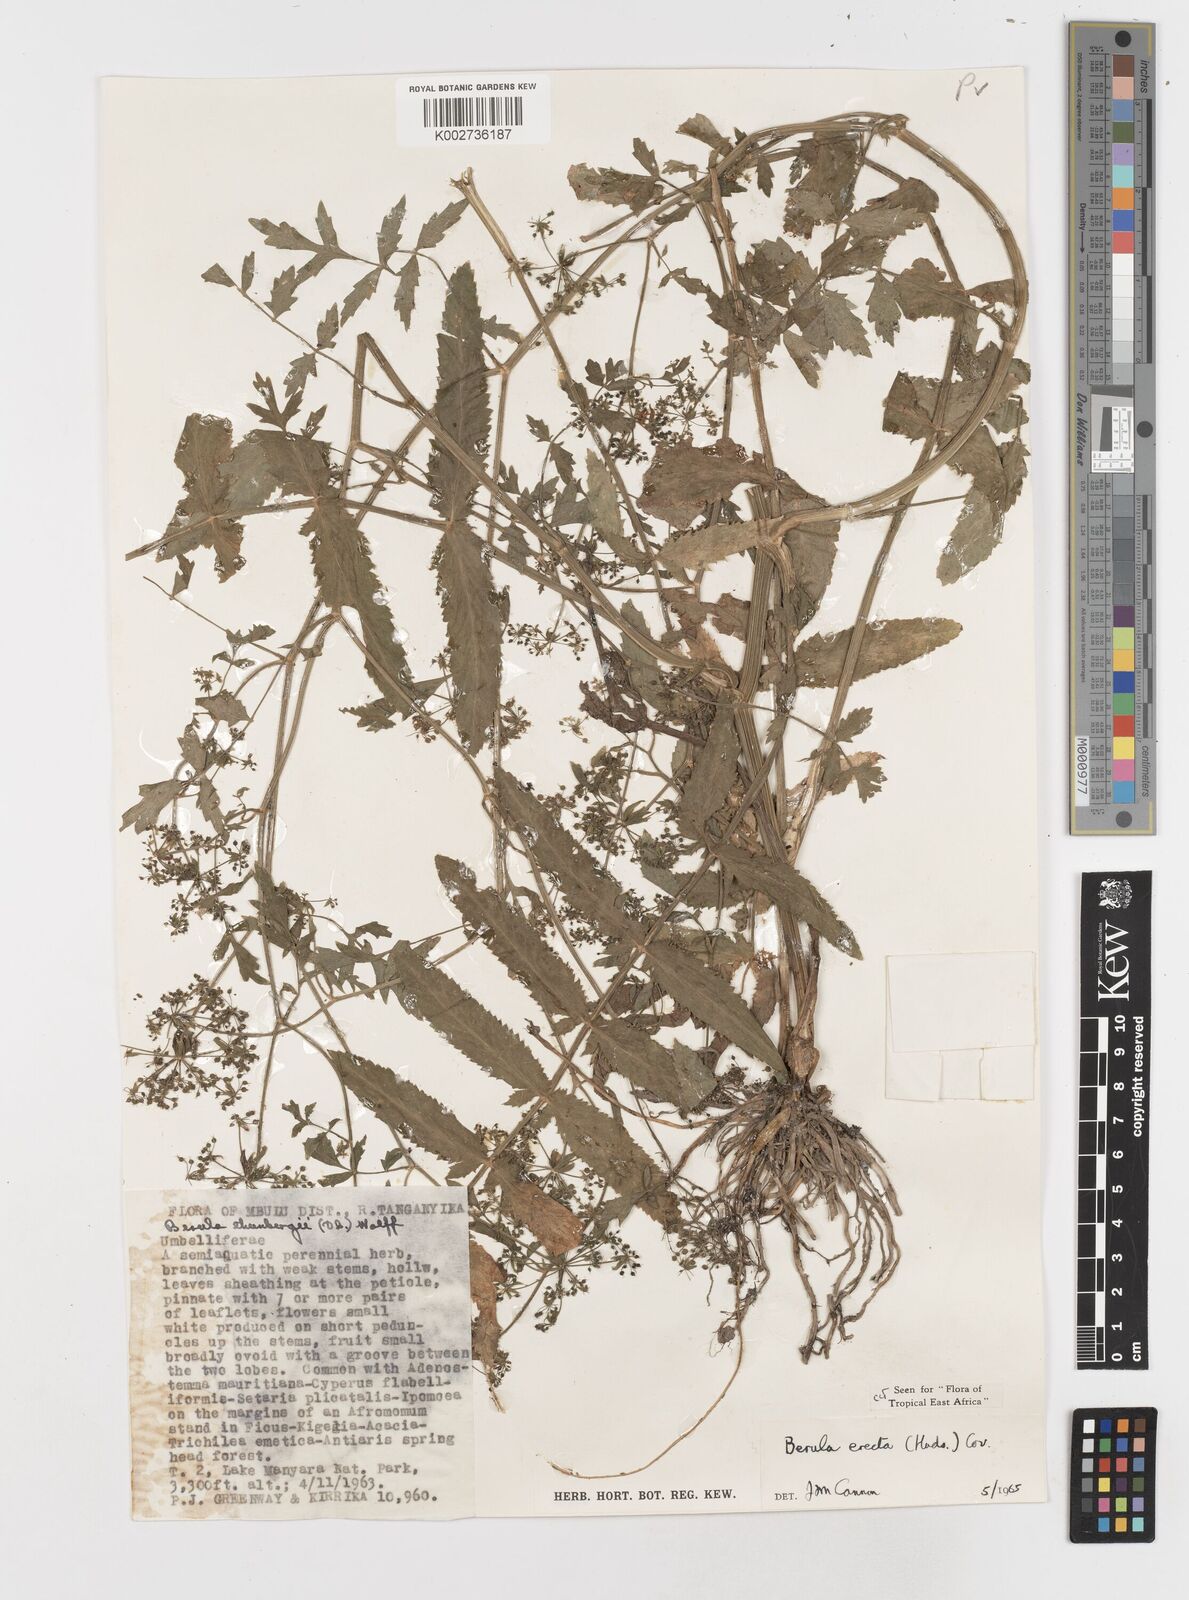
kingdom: Plantae
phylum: Tracheophyta
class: Magnoliopsida
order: Apiales
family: Apiaceae
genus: Berula
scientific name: Berula erecta
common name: Lesser water-parsnip
